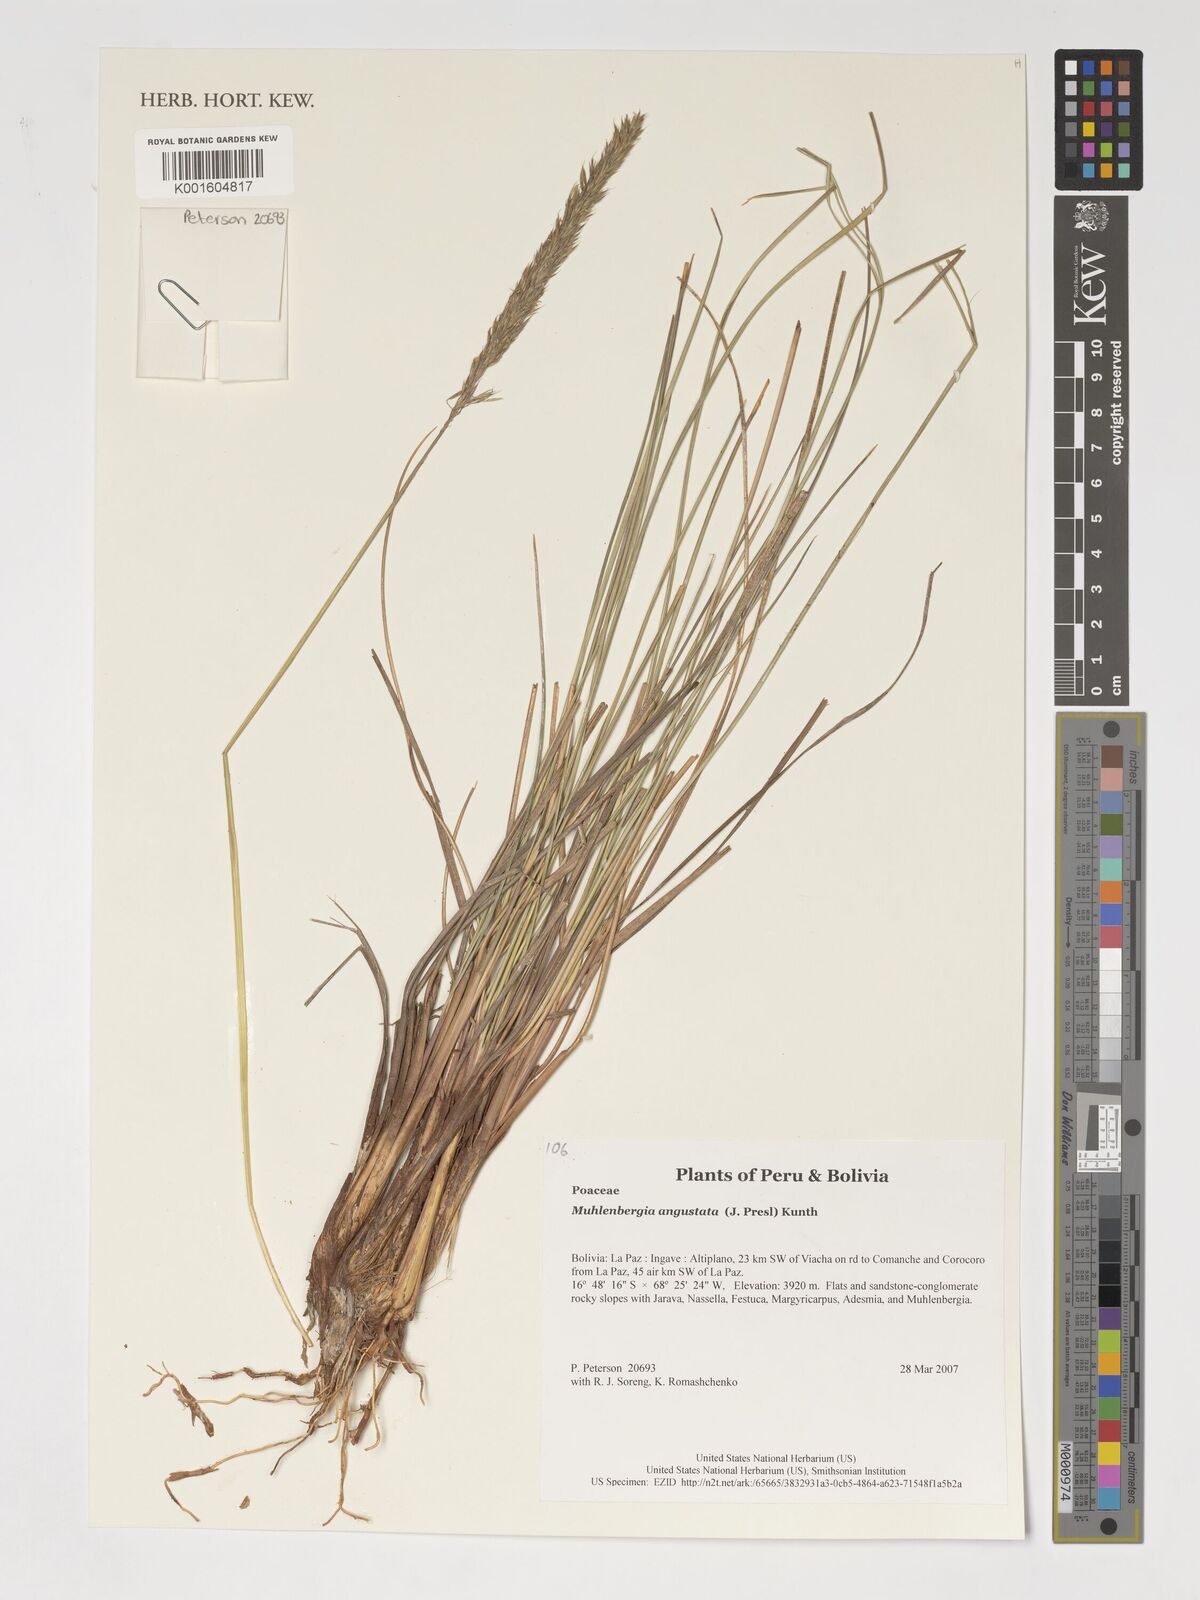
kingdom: Plantae
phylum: Tracheophyta
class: Liliopsida
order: Poales
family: Poaceae
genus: Muhlenbergia
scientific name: Muhlenbergia angustata
